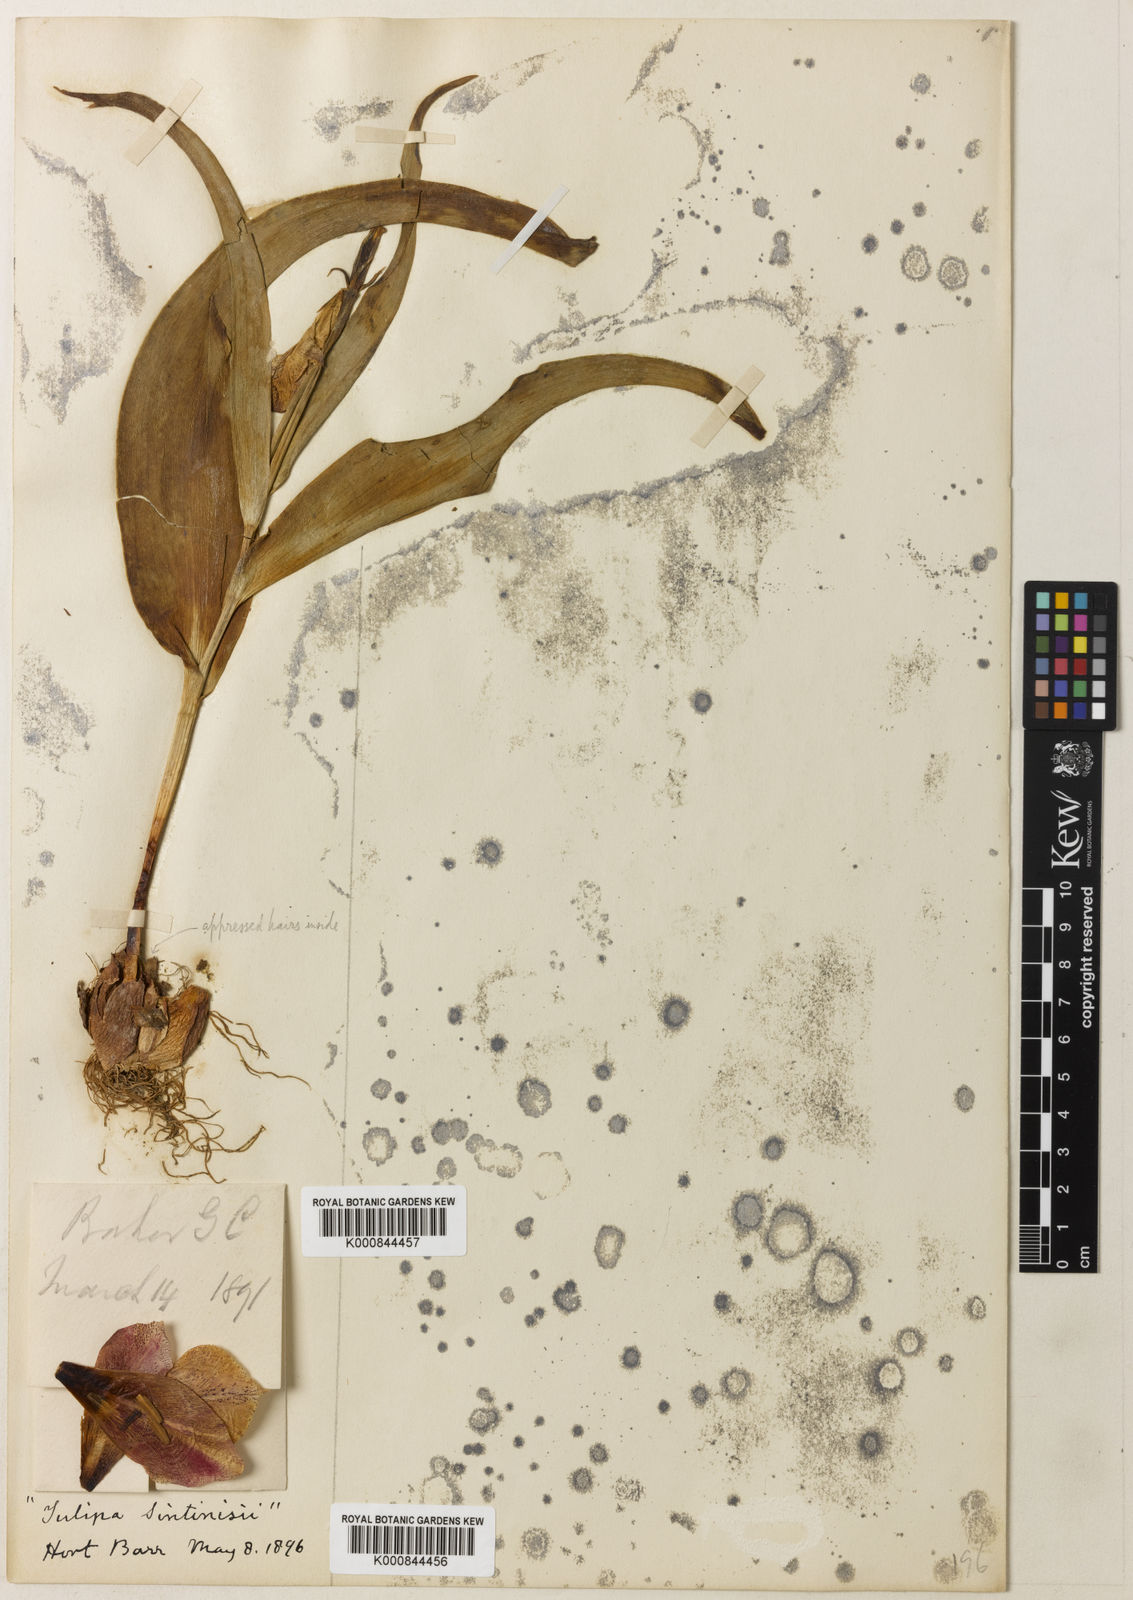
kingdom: Plantae
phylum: Tracheophyta
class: Liliopsida
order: Liliales
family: Liliaceae
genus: Tulipa
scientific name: Tulipa aleppensis
